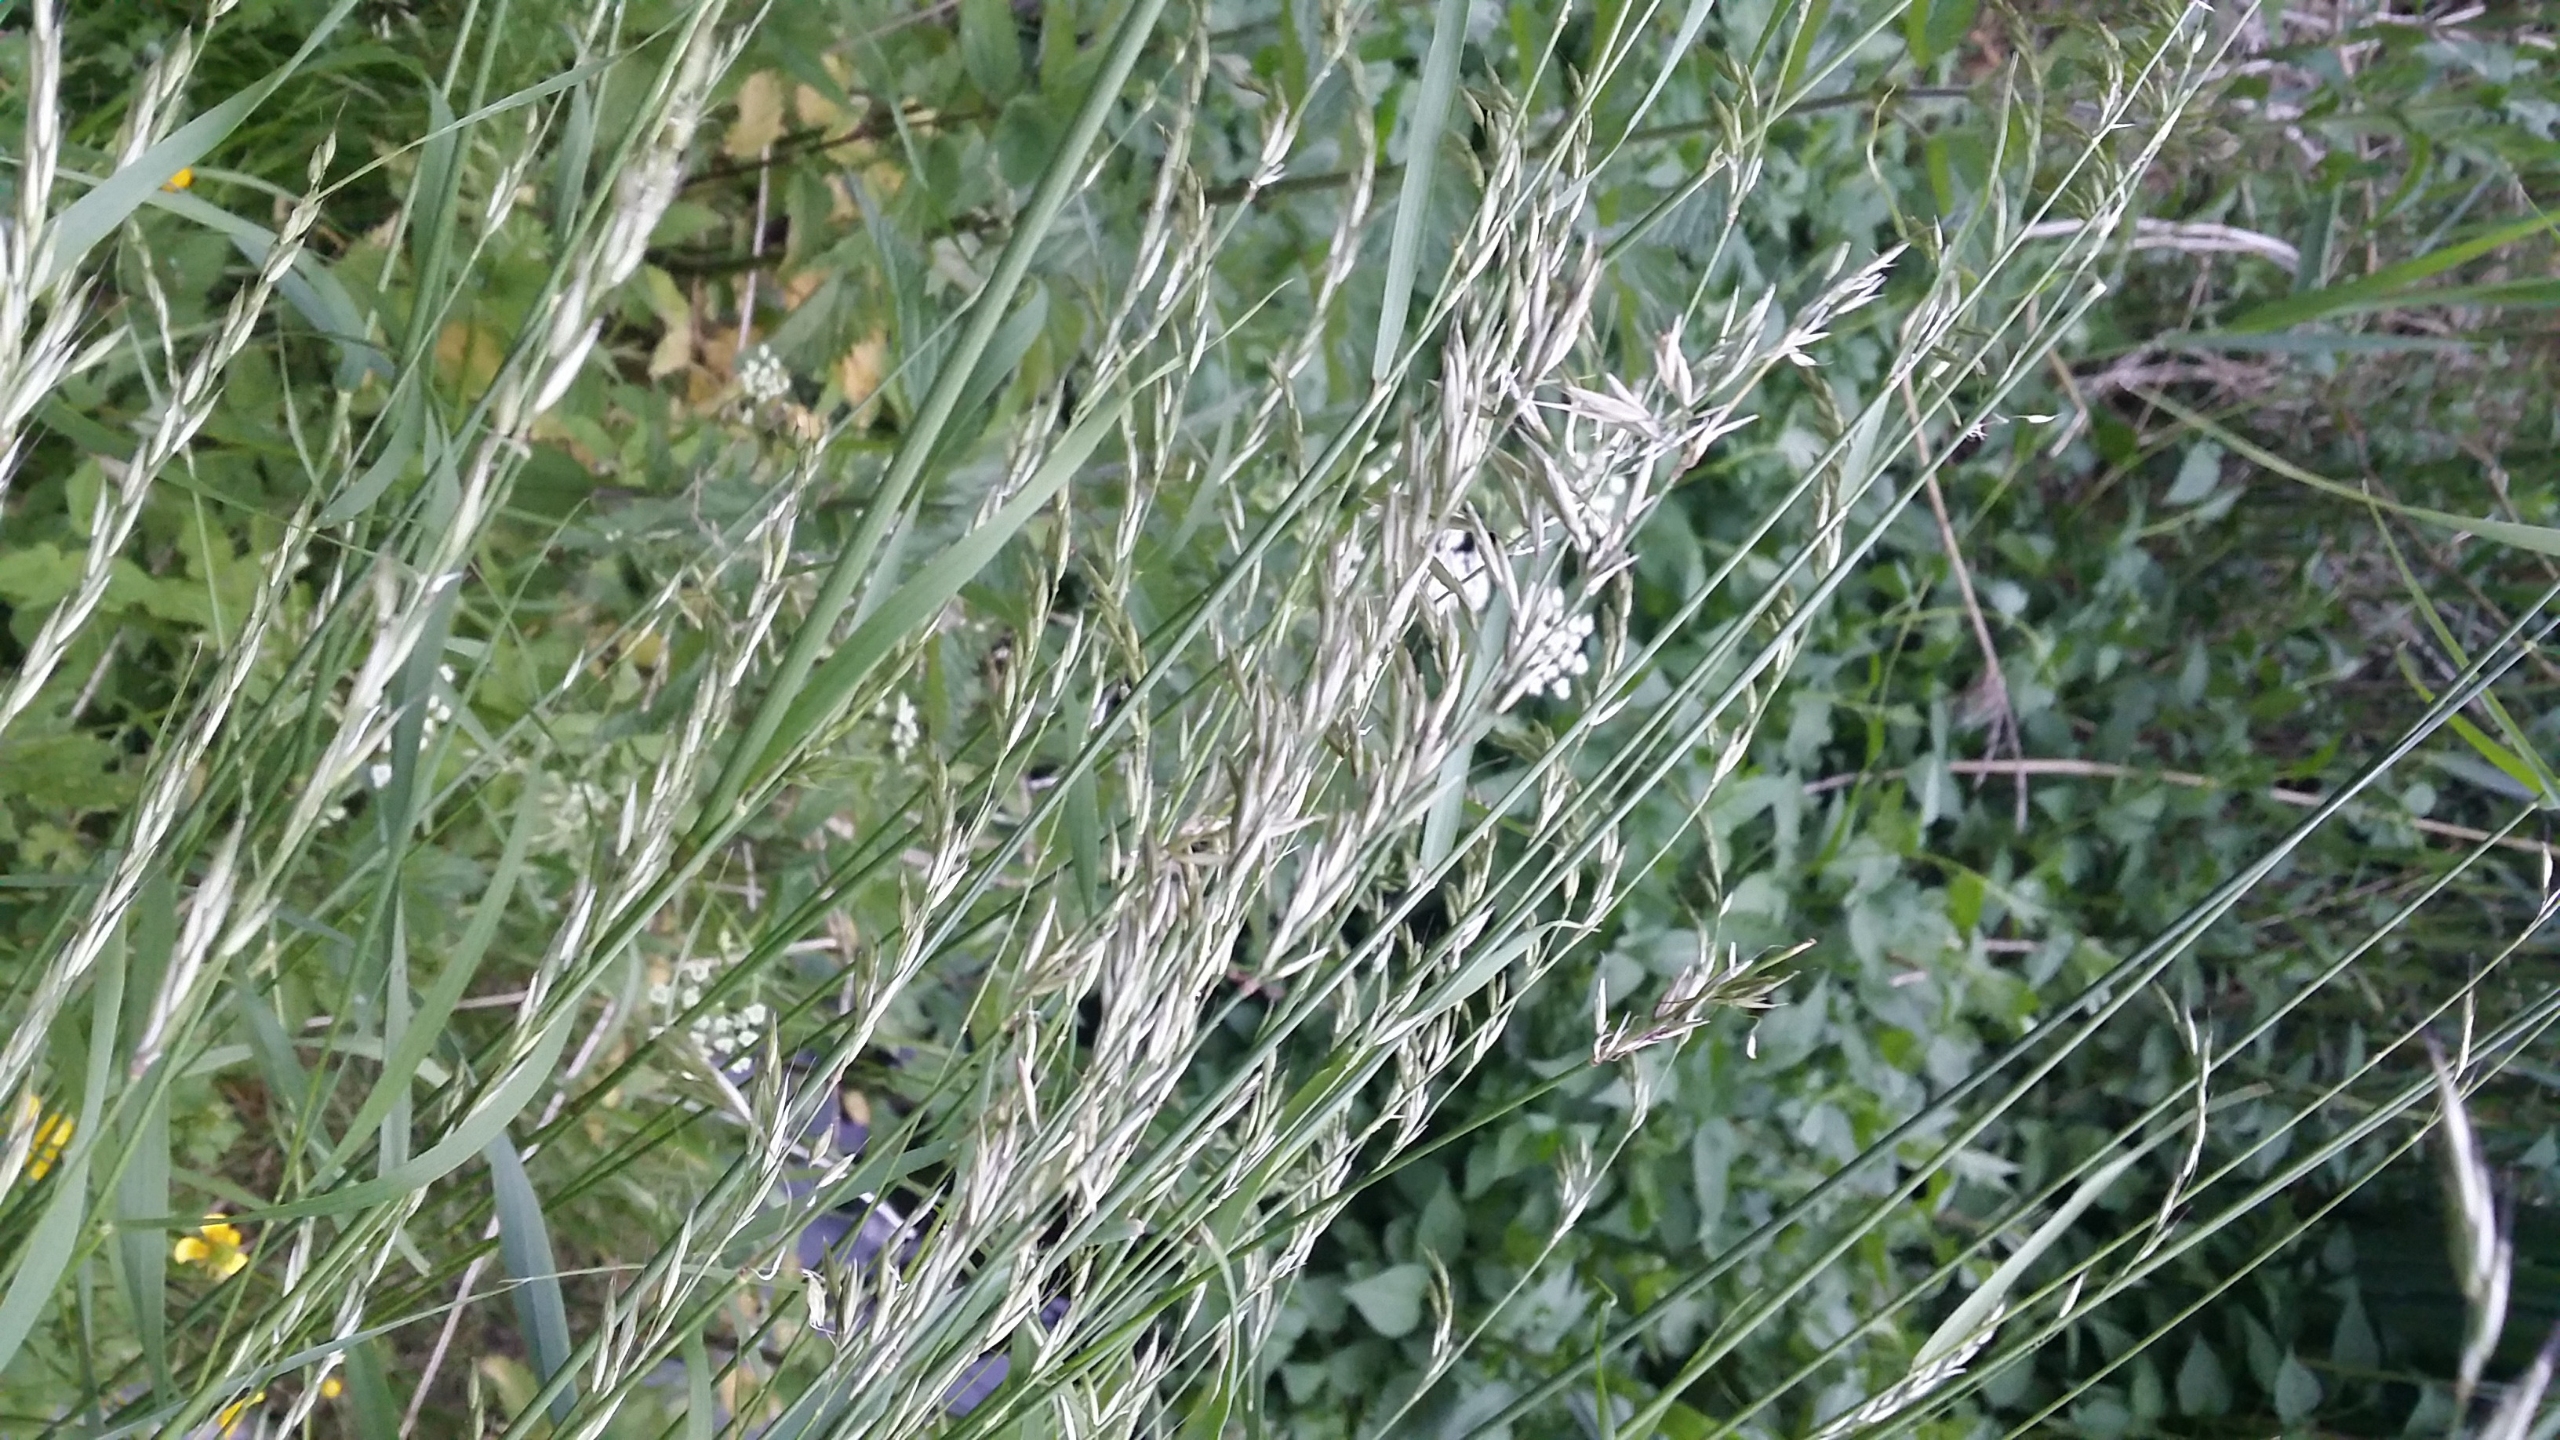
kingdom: Plantae
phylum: Tracheophyta
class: Liliopsida
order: Poales
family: Poaceae
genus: Arrhenatherum
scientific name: Arrhenatherum elatius
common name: Draphavre
